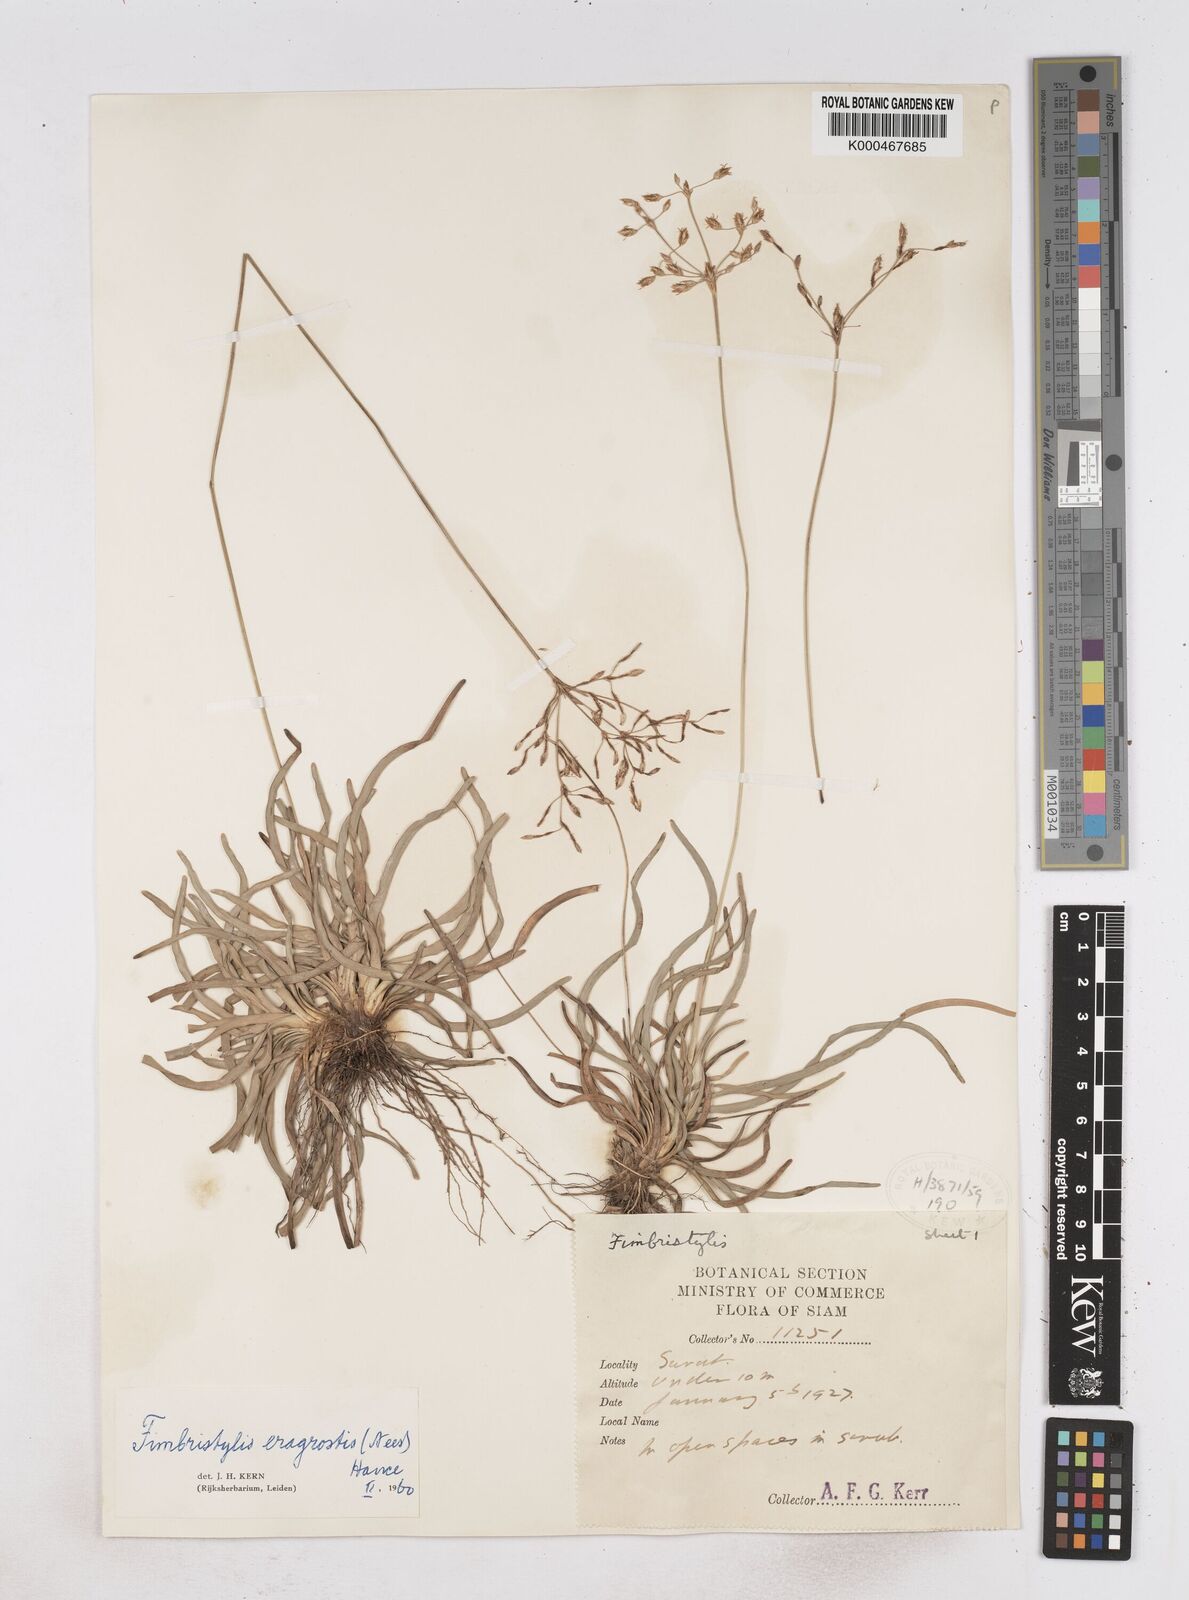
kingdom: Plantae
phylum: Tracheophyta
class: Liliopsida
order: Poales
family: Cyperaceae
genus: Fimbristylis
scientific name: Fimbristylis eragrostis
